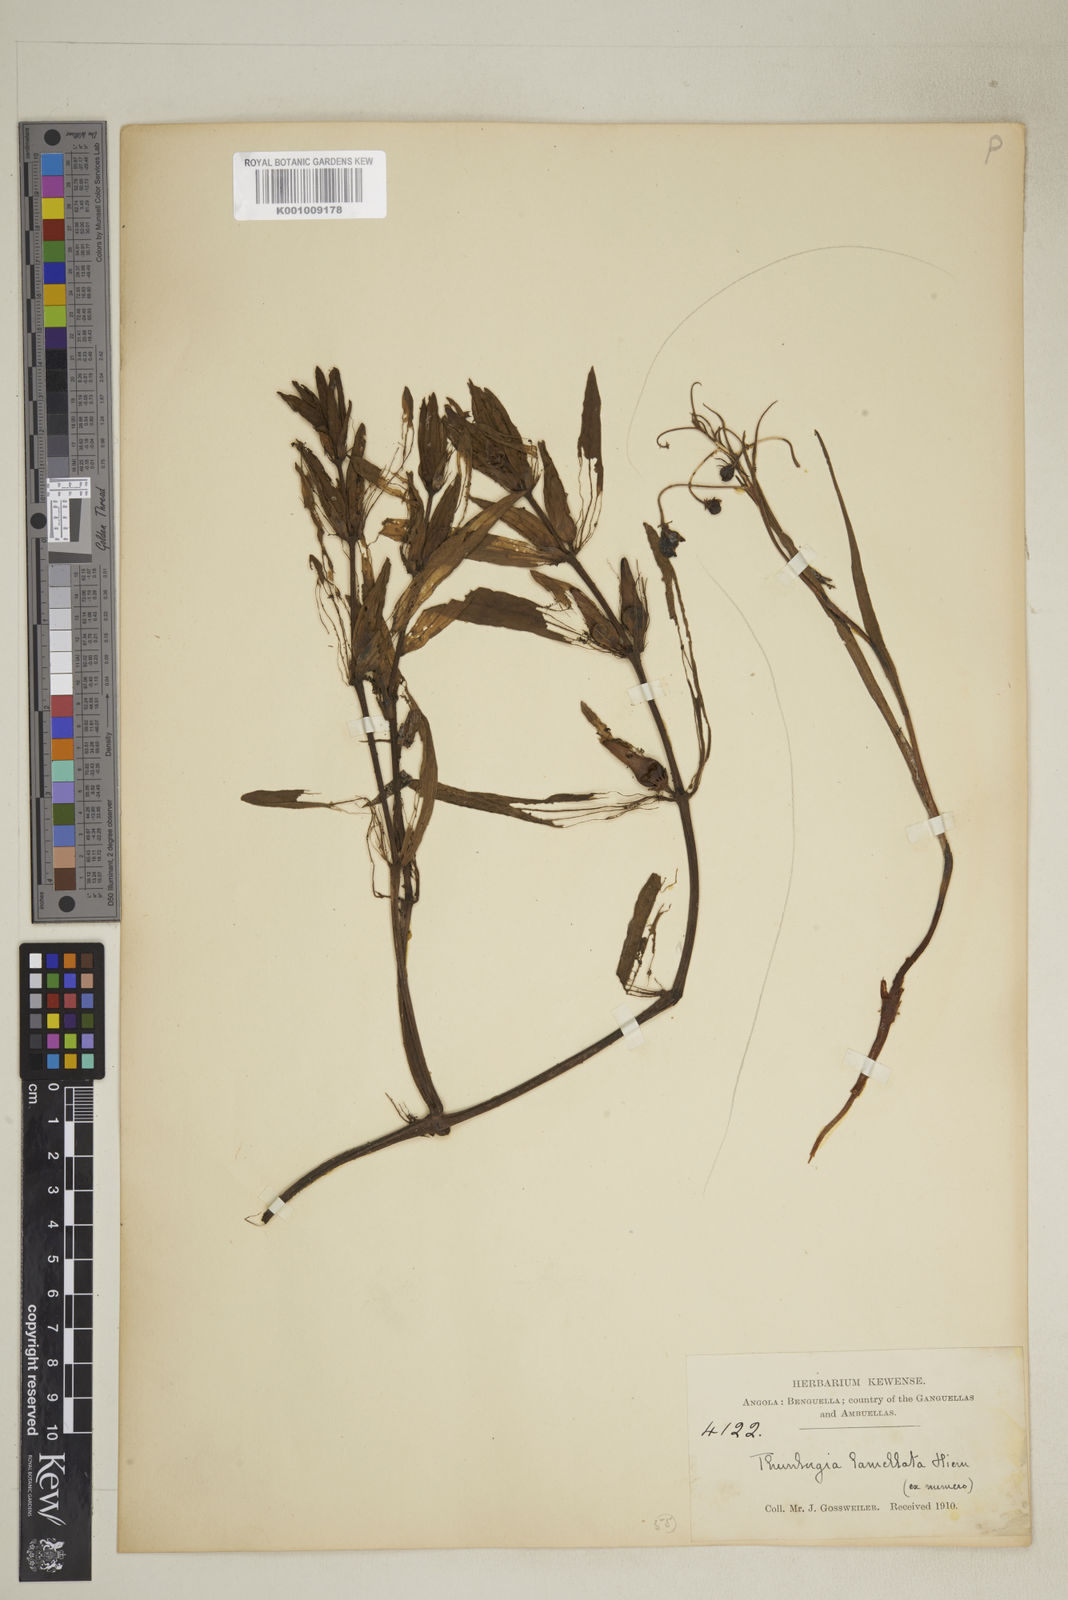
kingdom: Plantae
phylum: Tracheophyta
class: Magnoliopsida
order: Lamiales
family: Acanthaceae
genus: Thunbergia
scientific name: Thunbergia lamellata
